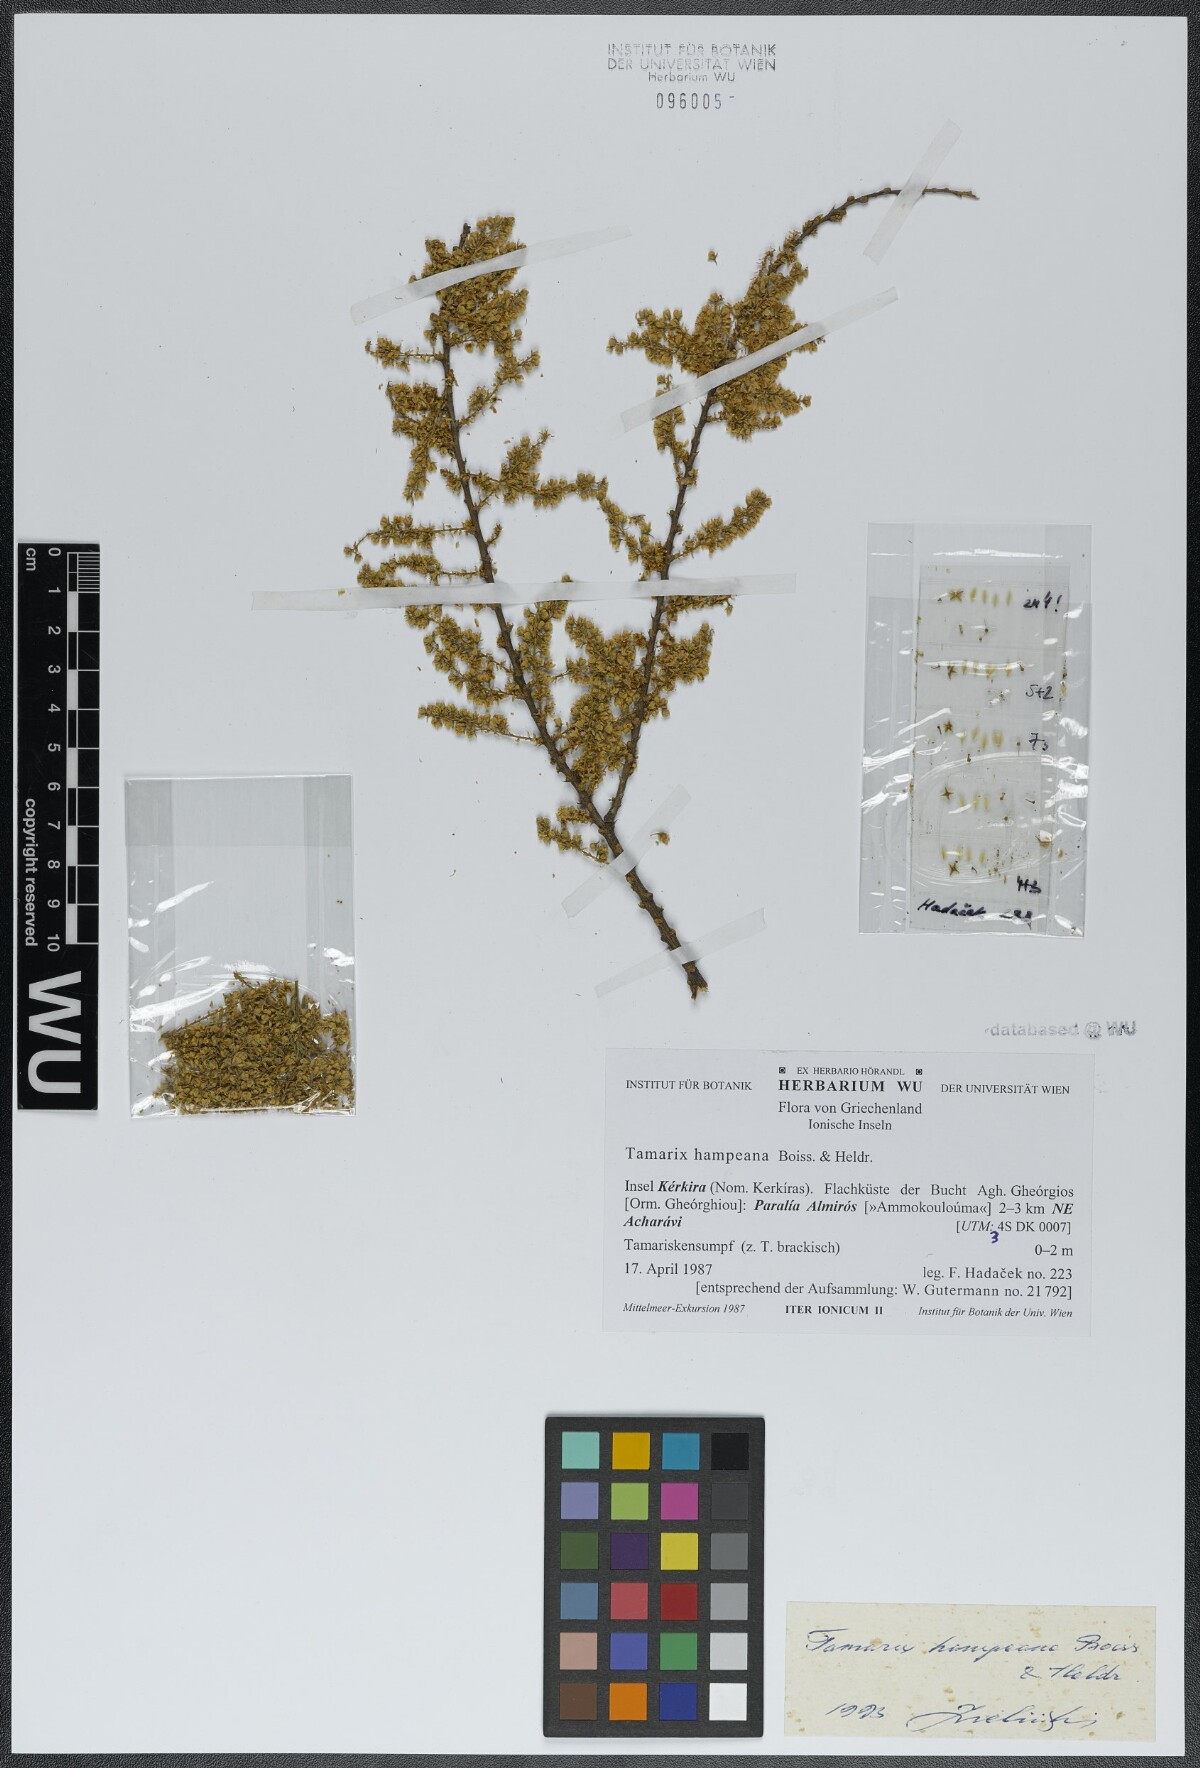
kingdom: Plantae
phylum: Tracheophyta
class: Magnoliopsida
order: Caryophyllales
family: Tamaricaceae
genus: Tamarix
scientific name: Tamarix hampeana
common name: Hampe’s tamarisk
